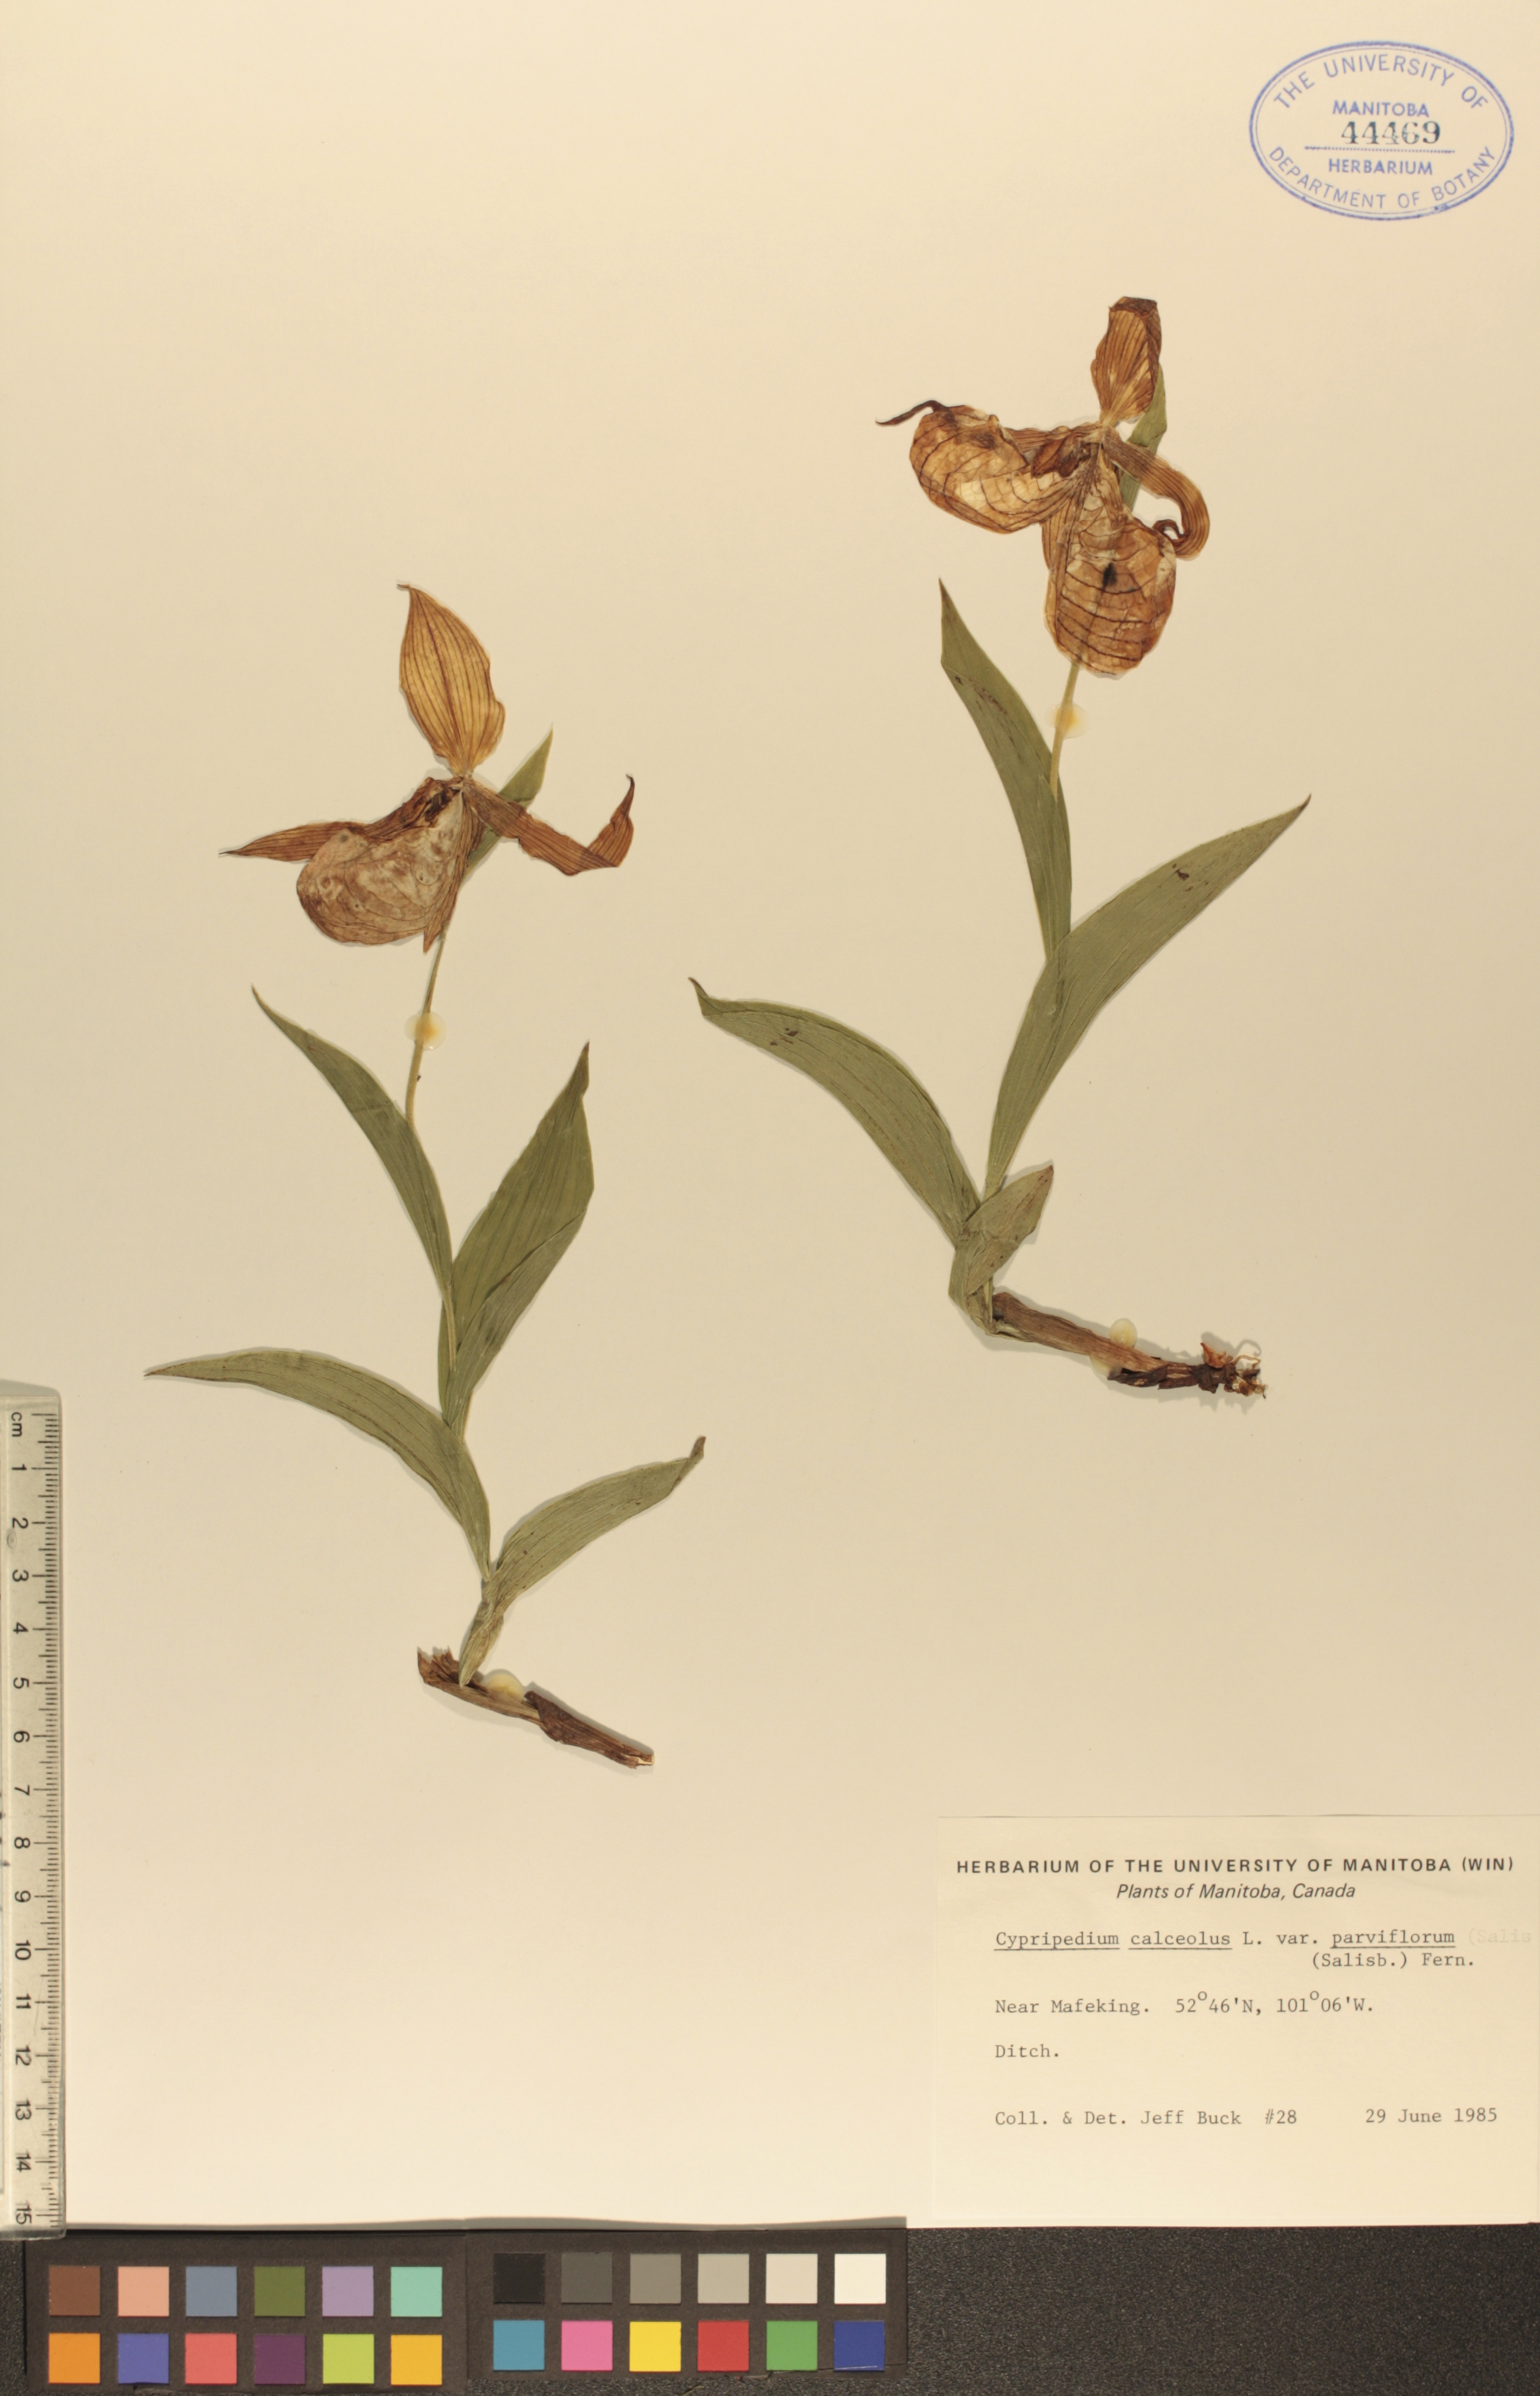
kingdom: Plantae
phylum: Tracheophyta
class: Liliopsida
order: Asparagales
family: Orchidaceae
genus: Cypripedium
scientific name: Cypripedium parviflorum
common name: American yellow lady's-slipper
